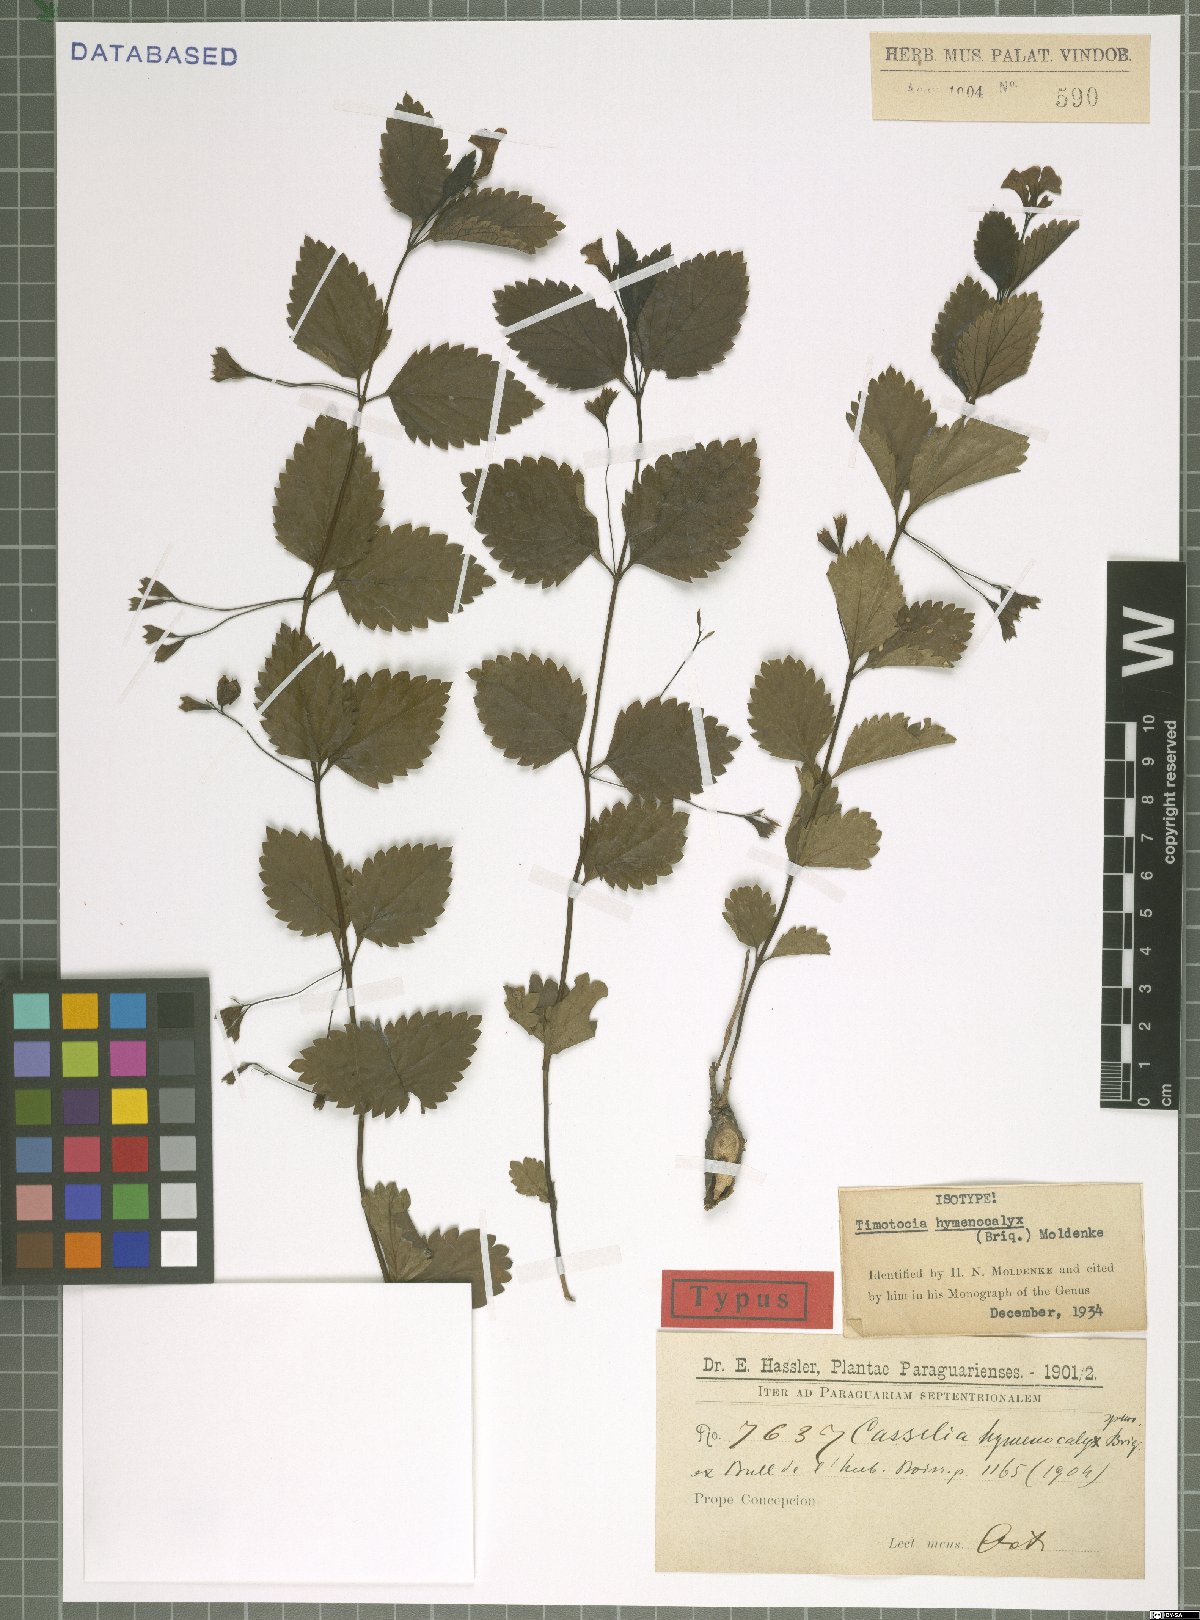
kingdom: Plantae
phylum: Tracheophyta
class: Magnoliopsida
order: Lamiales
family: Verbenaceae
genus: Casselia
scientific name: Casselia chamaedryfolia
